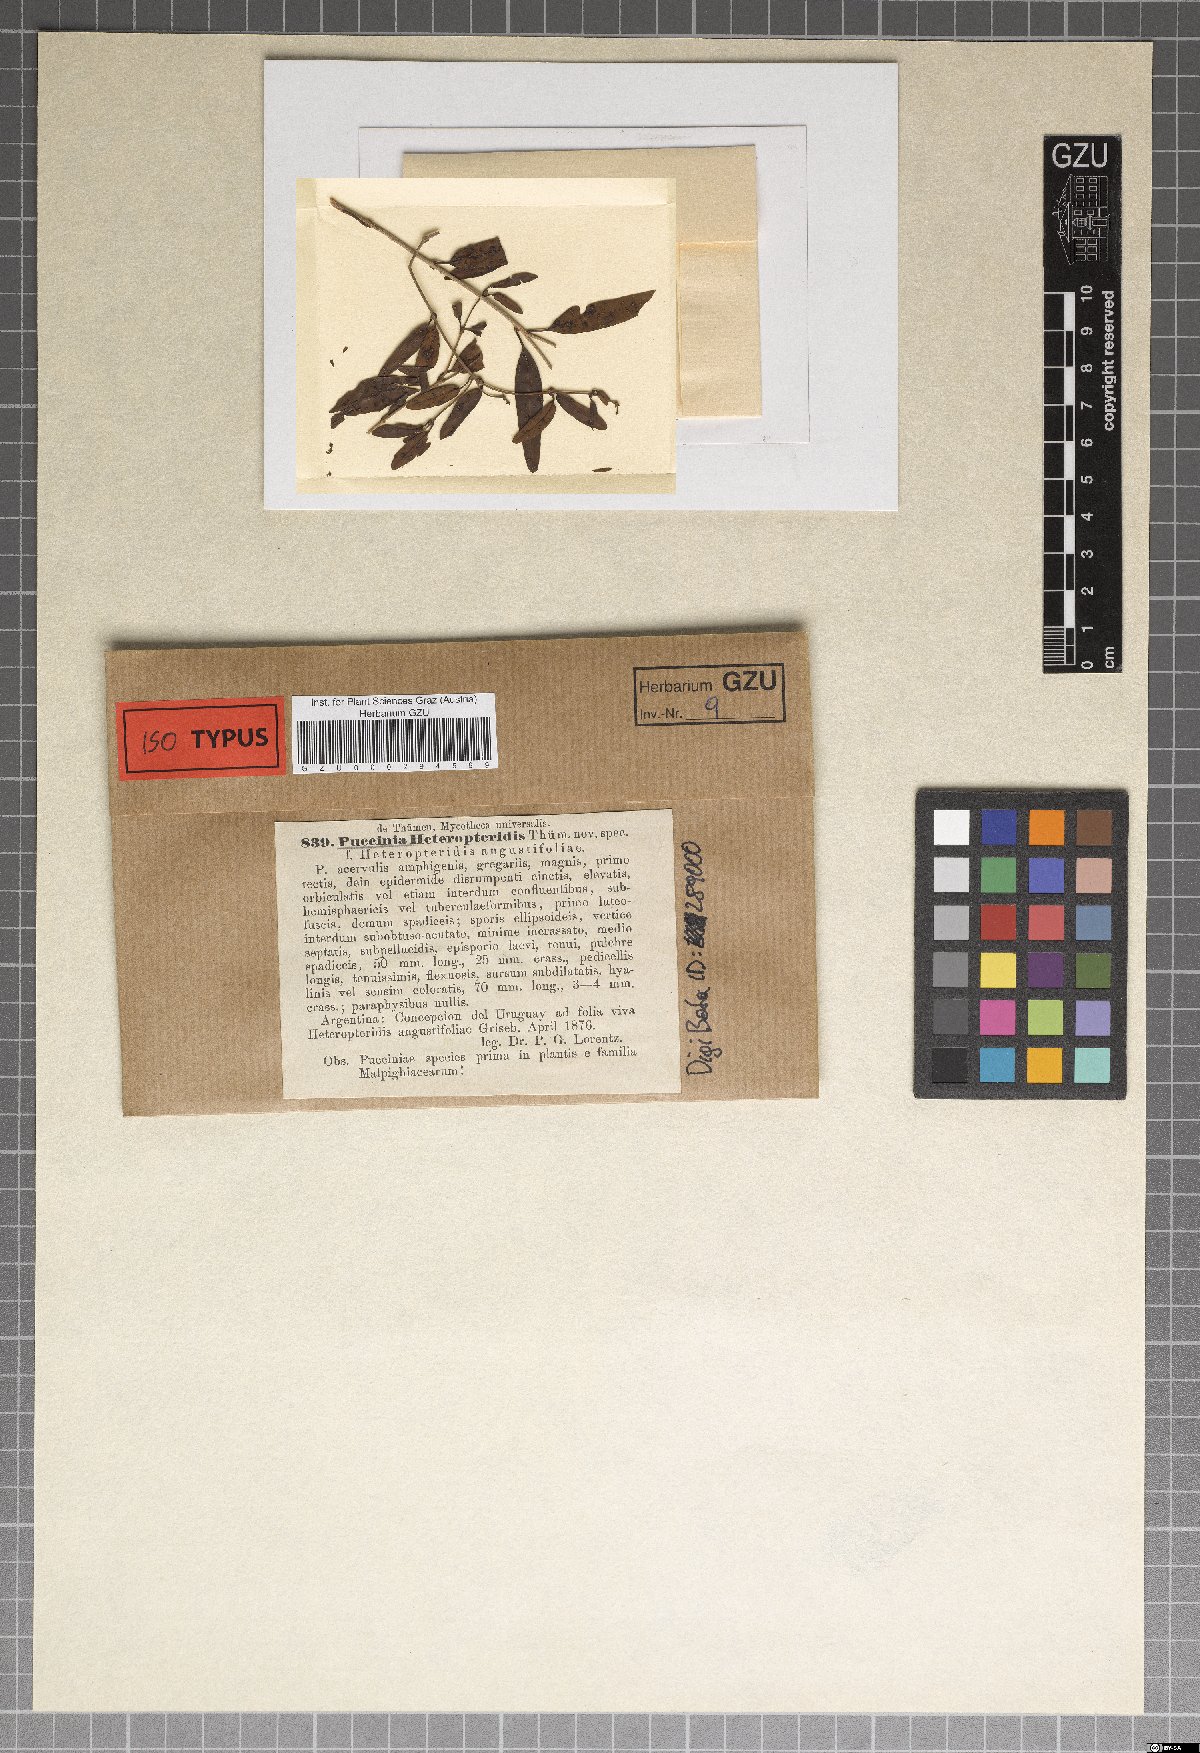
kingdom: Fungi
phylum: Basidiomycota
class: Pucciniomycetes
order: Pucciniales
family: Pucciniaceae
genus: Puccinia
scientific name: Puccinia heteropteridis
